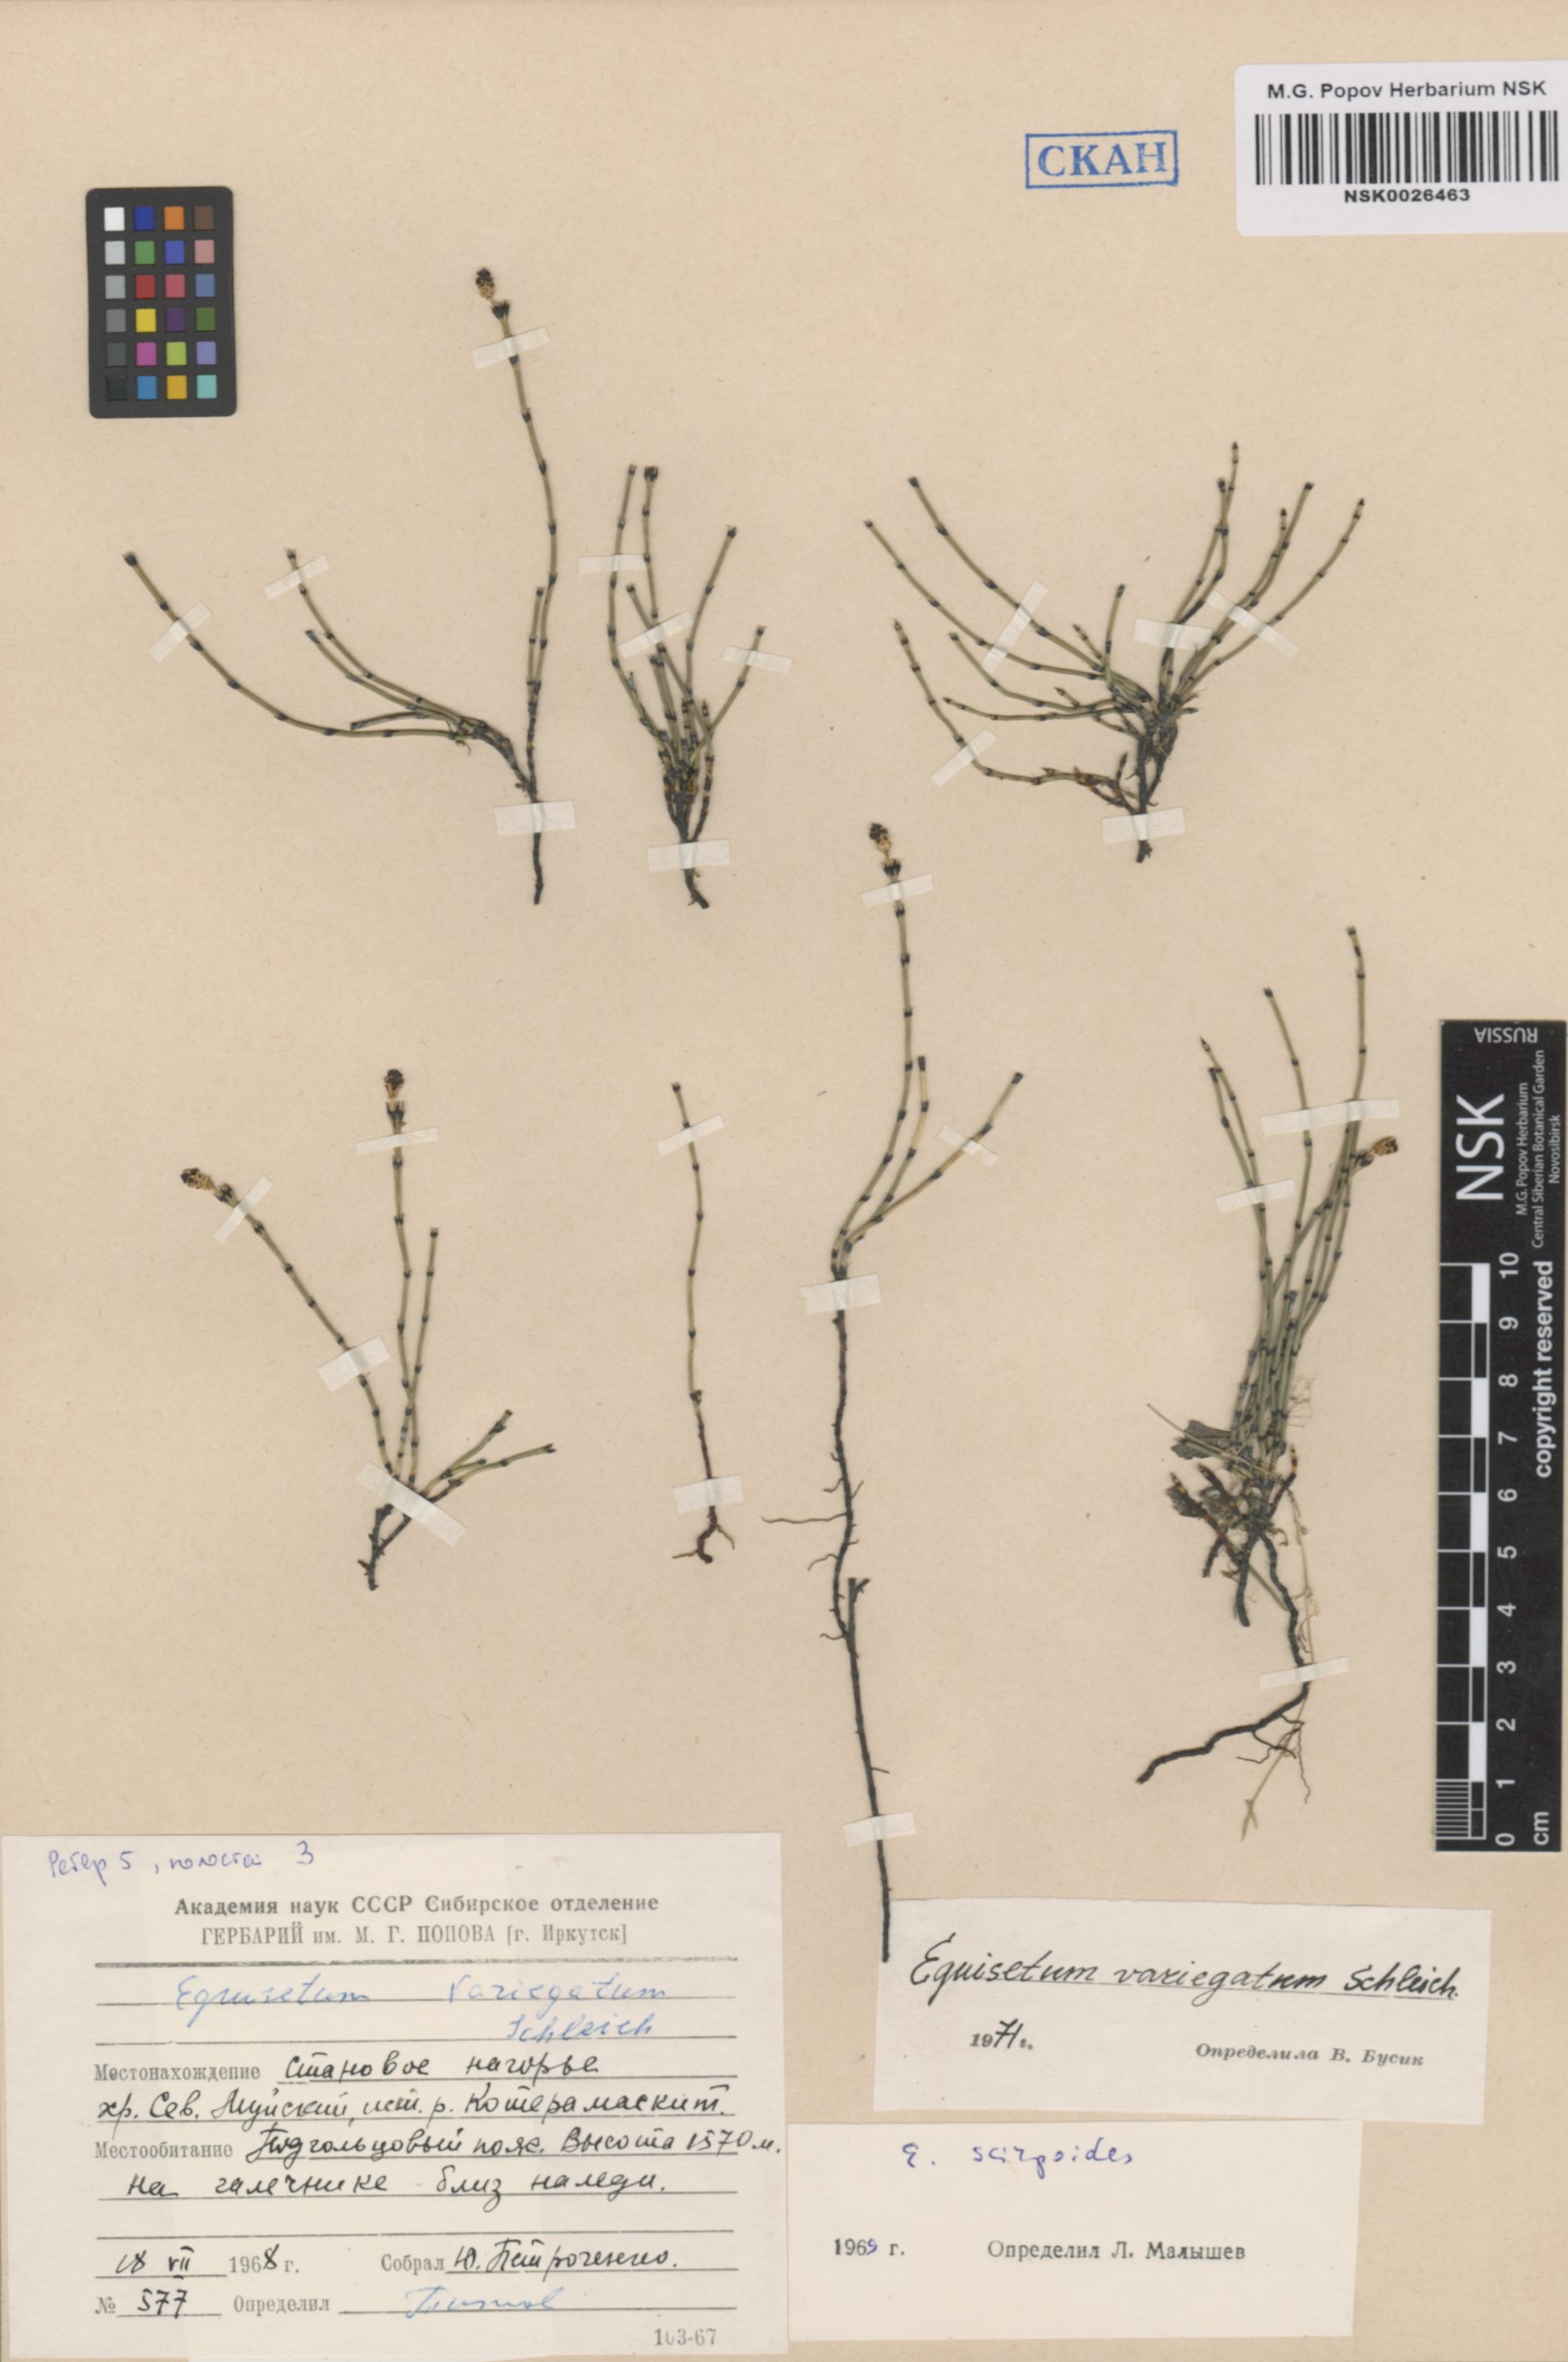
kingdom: Plantae
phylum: Tracheophyta
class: Polypodiopsida
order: Equisetales
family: Equisetaceae
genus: Equisetum
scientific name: Equisetum variegatum
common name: Variegated horsetail
